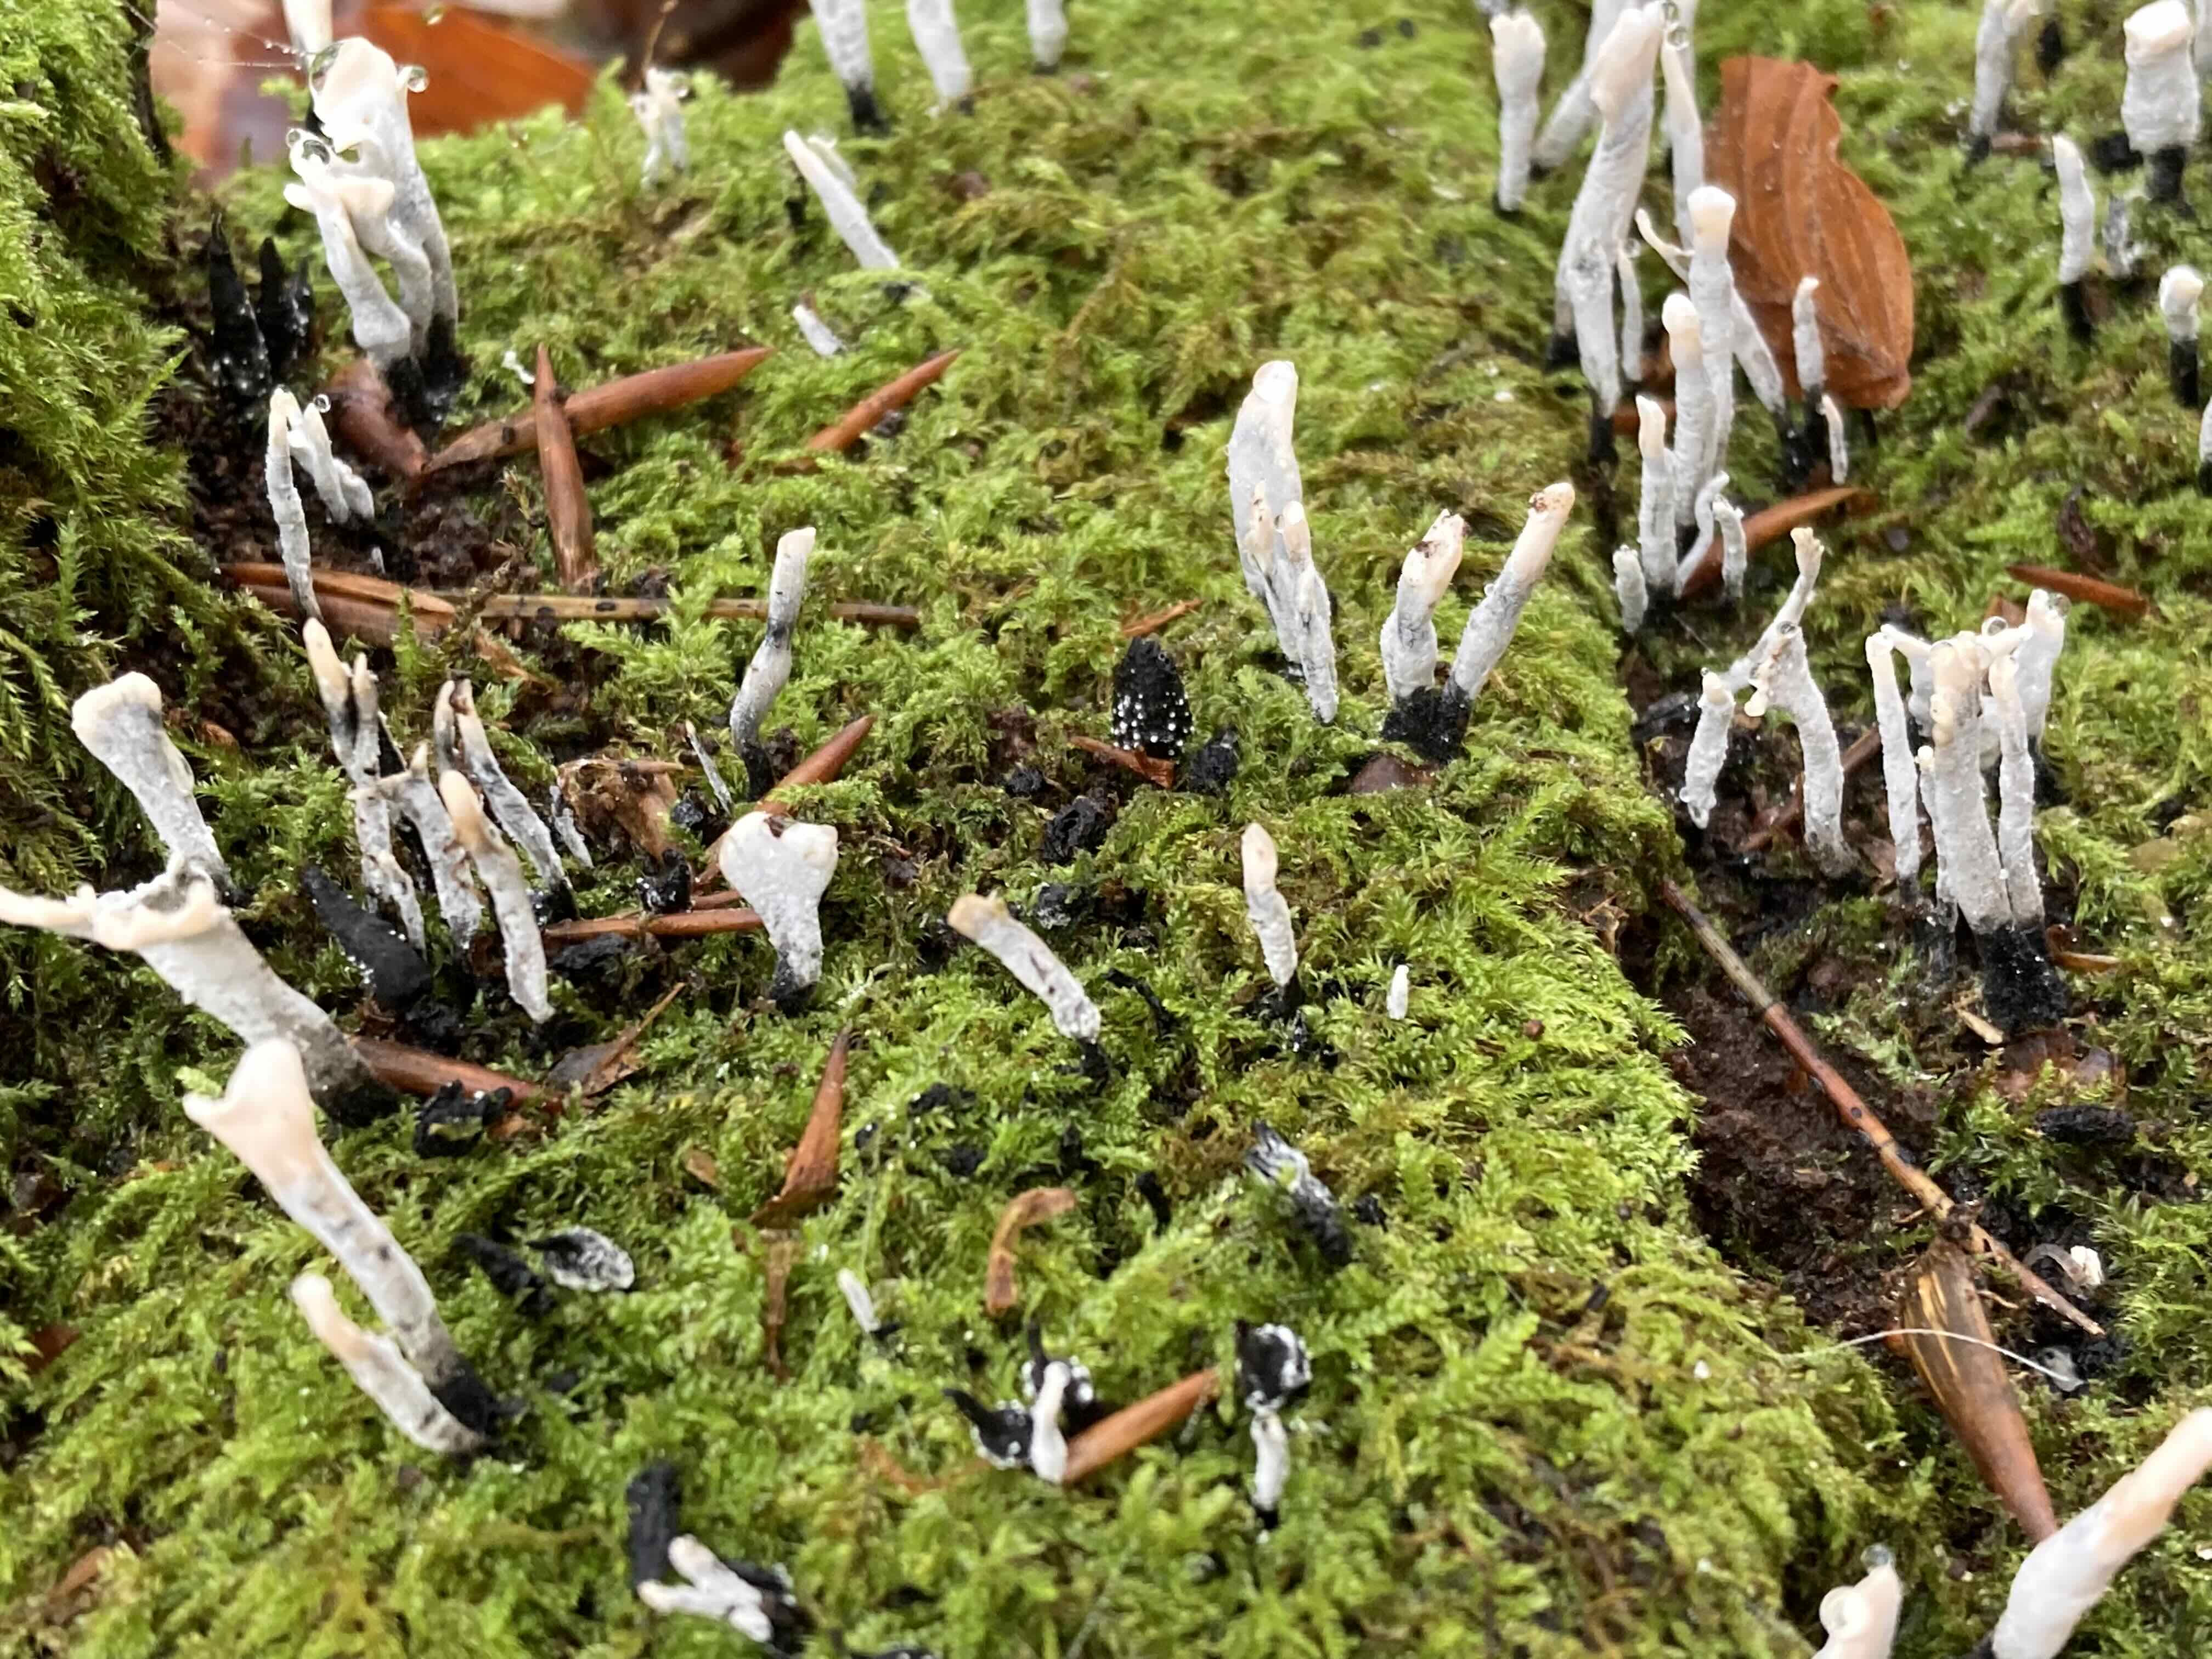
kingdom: Fungi
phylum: Ascomycota
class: Sordariomycetes
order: Xylariales
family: Xylariaceae
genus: Xylaria
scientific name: Xylaria hypoxylon
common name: grenet stødsvamp
